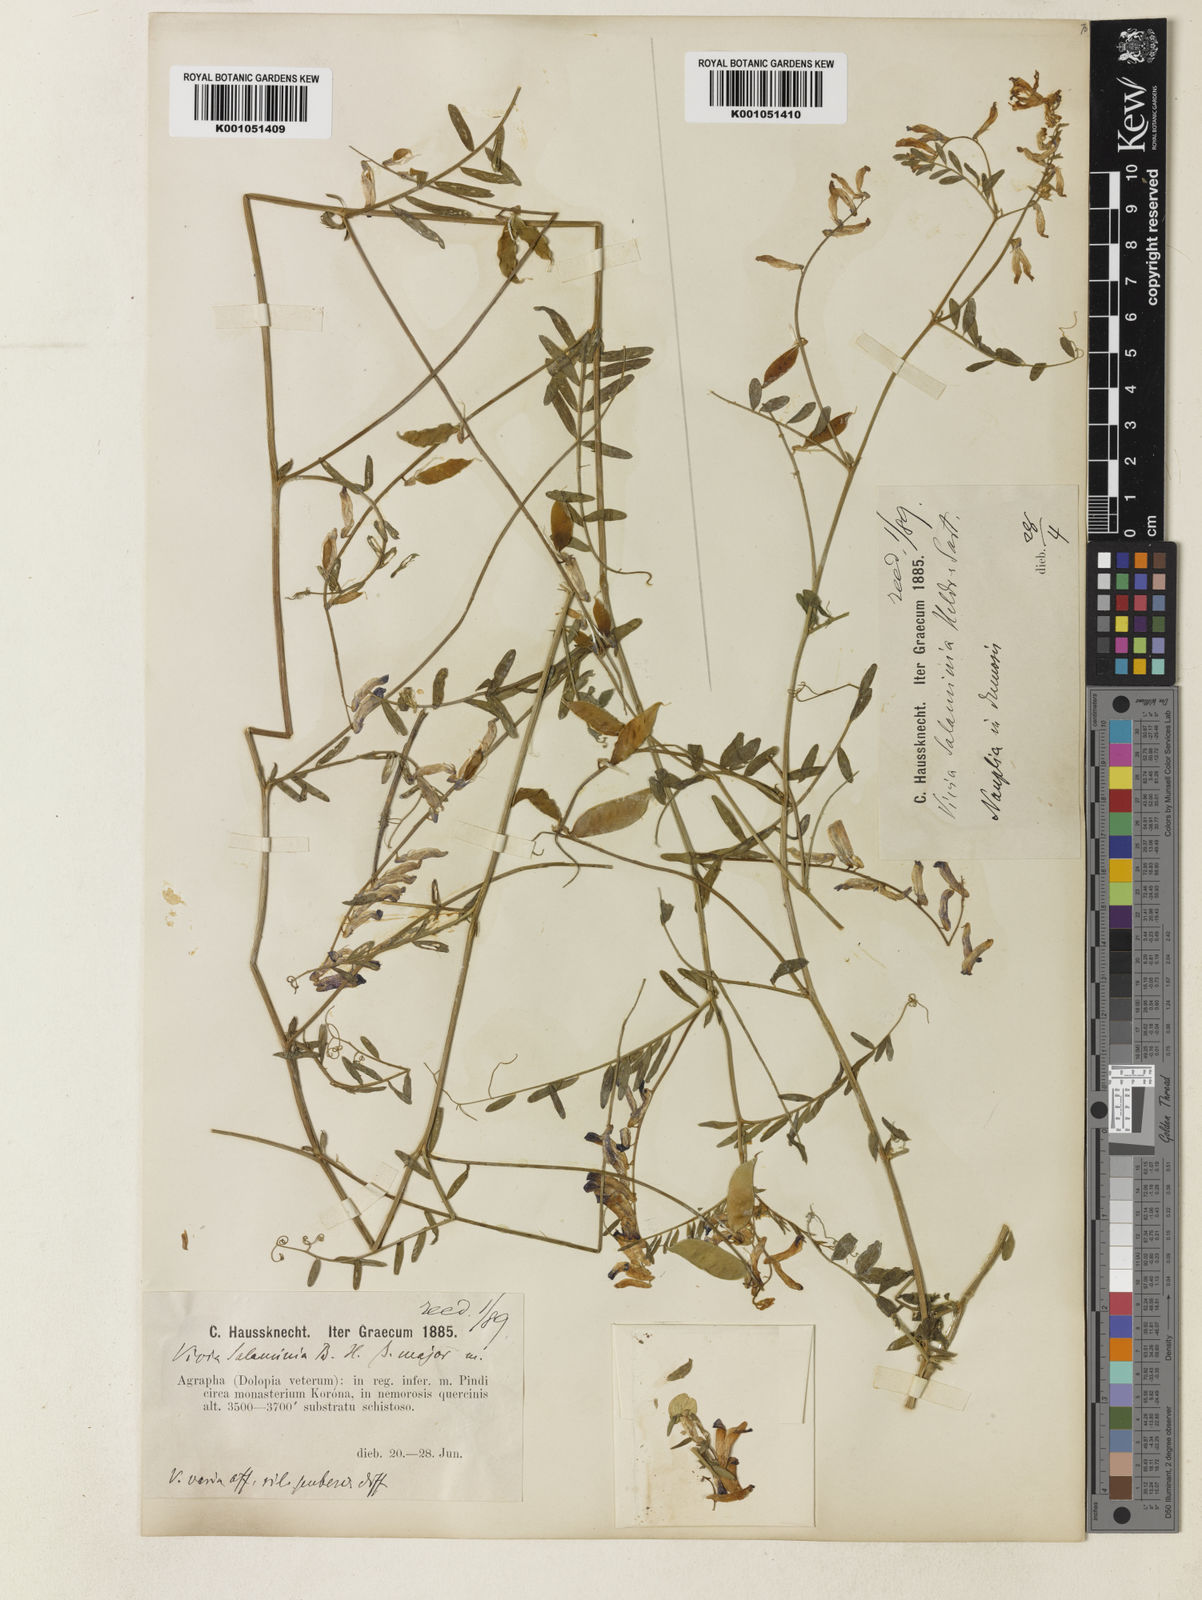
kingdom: Plantae
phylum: Tracheophyta
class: Magnoliopsida
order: Fabales
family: Fabaceae
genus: Vicia
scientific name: Vicia eriocarpa
